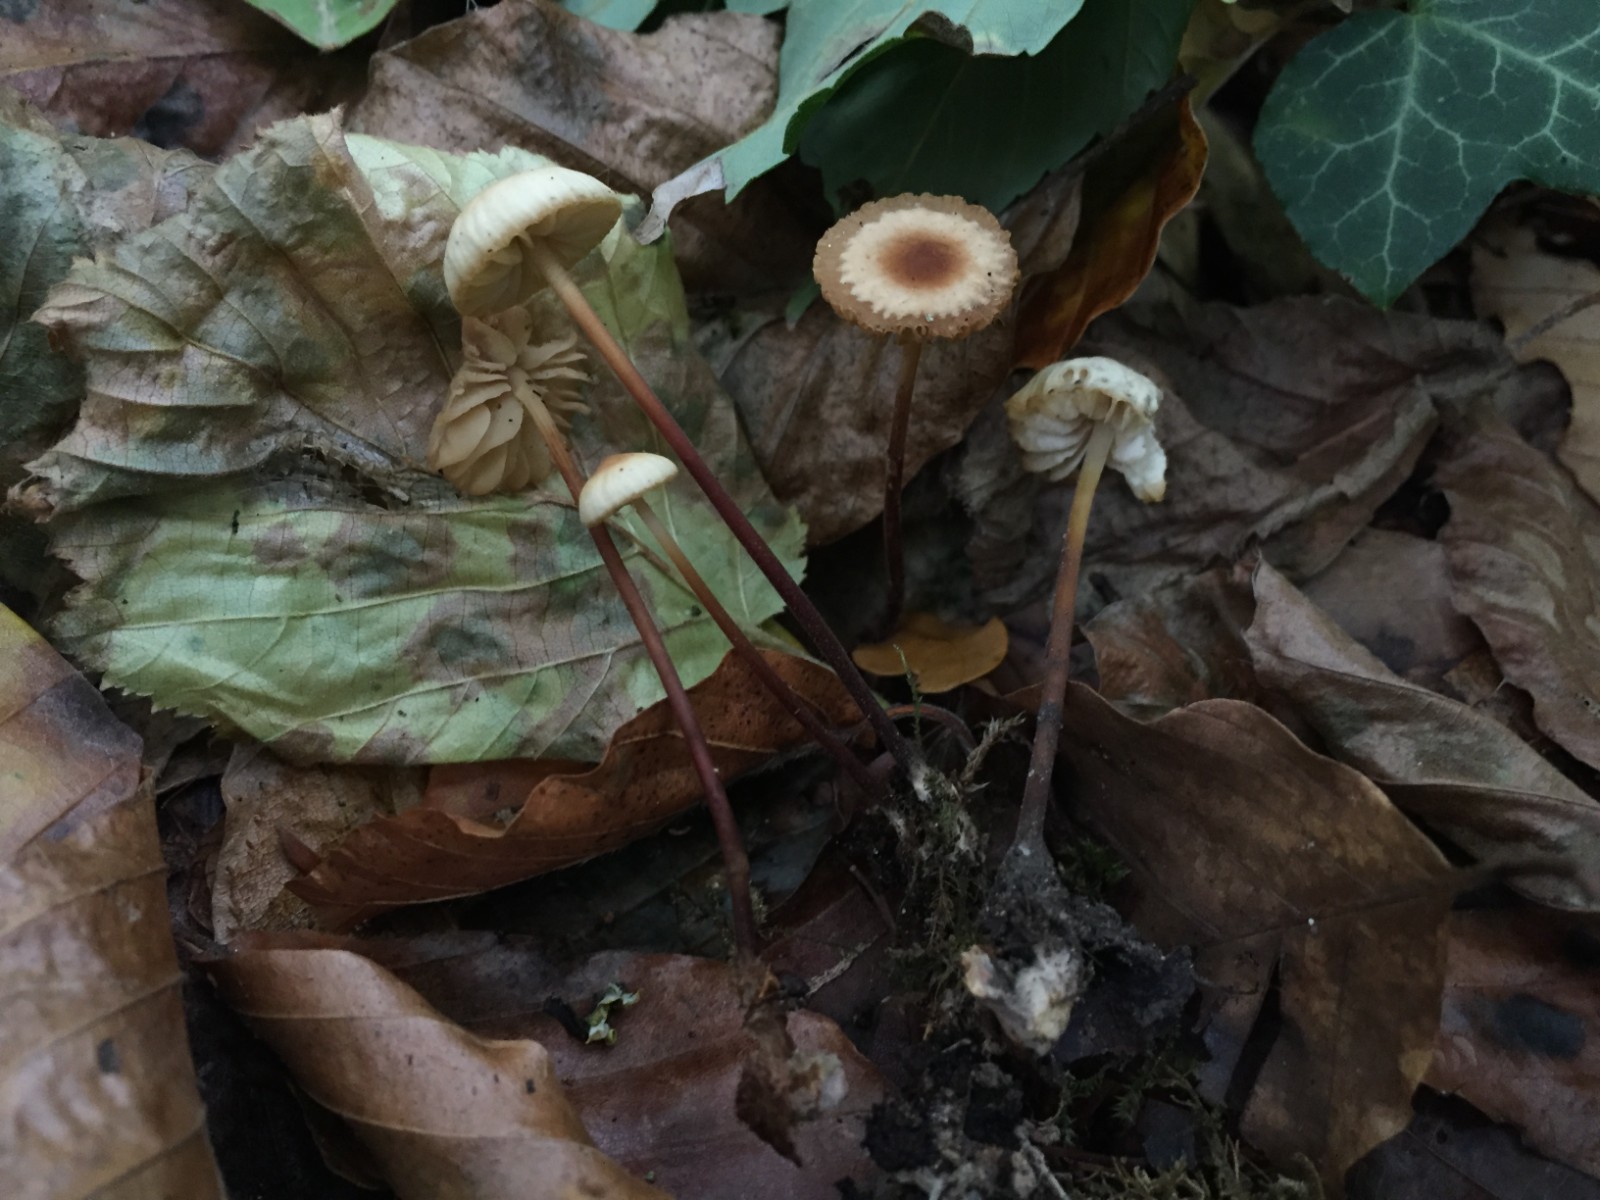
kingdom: Fungi
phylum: Basidiomycota
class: Agaricomycetes
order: Agaricales
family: Marasmiaceae
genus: Marasmius
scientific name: Marasmius torquescens
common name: filtfodet bruskhat
